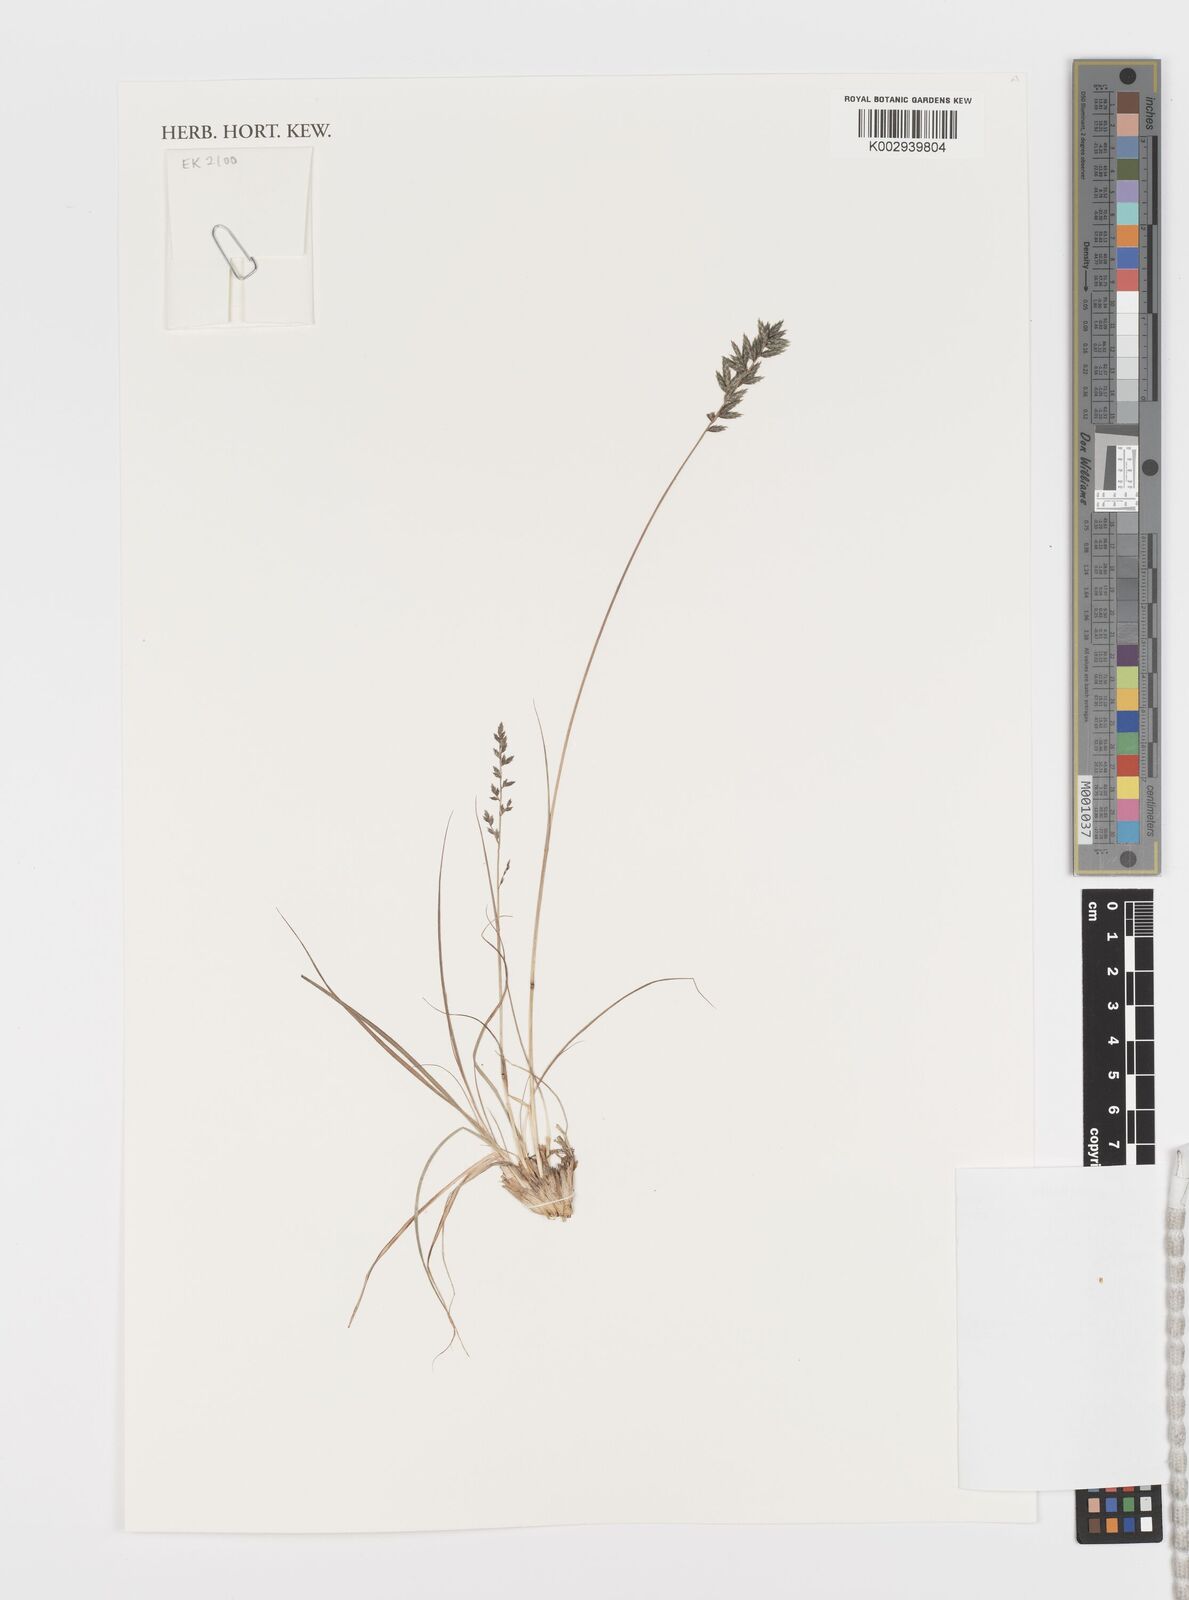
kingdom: Plantae
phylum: Tracheophyta
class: Liliopsida
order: Poales
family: Poaceae
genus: Eragrostis
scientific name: Eragrostis nindensis
